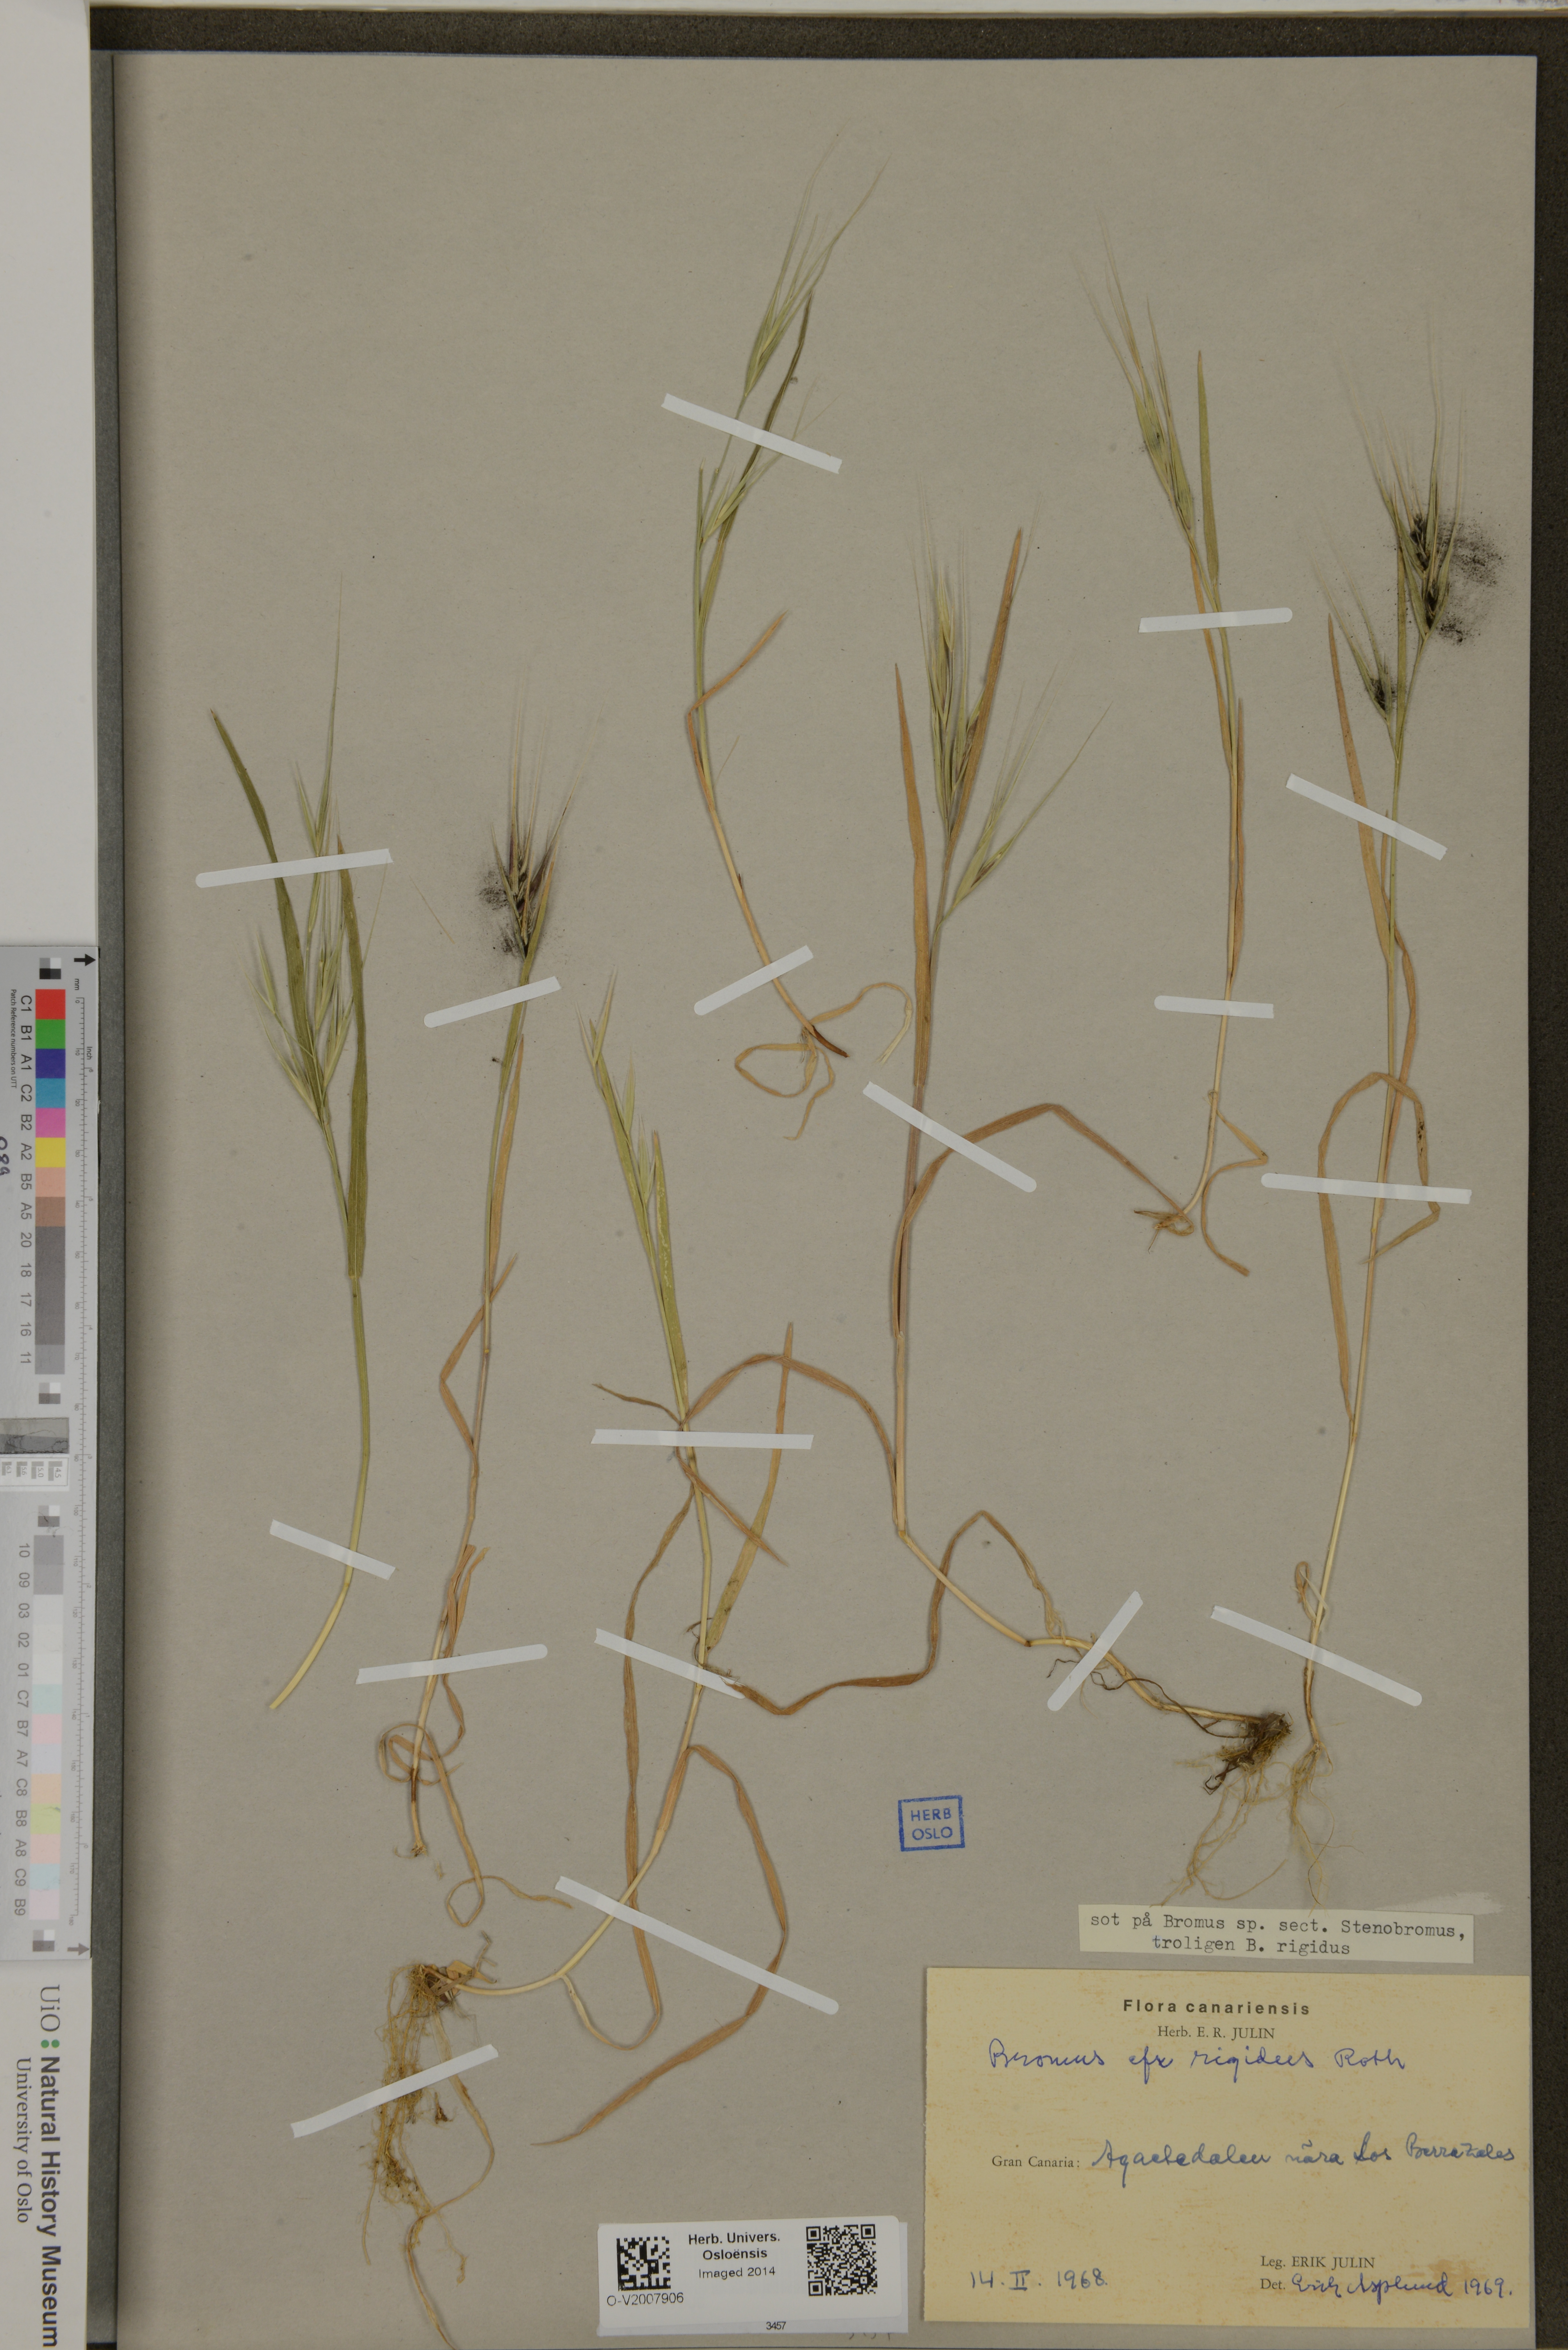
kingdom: Plantae
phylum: Tracheophyta
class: Liliopsida
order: Poales
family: Poaceae
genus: Bromus
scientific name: Bromus rigidus
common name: Ripgut brome
